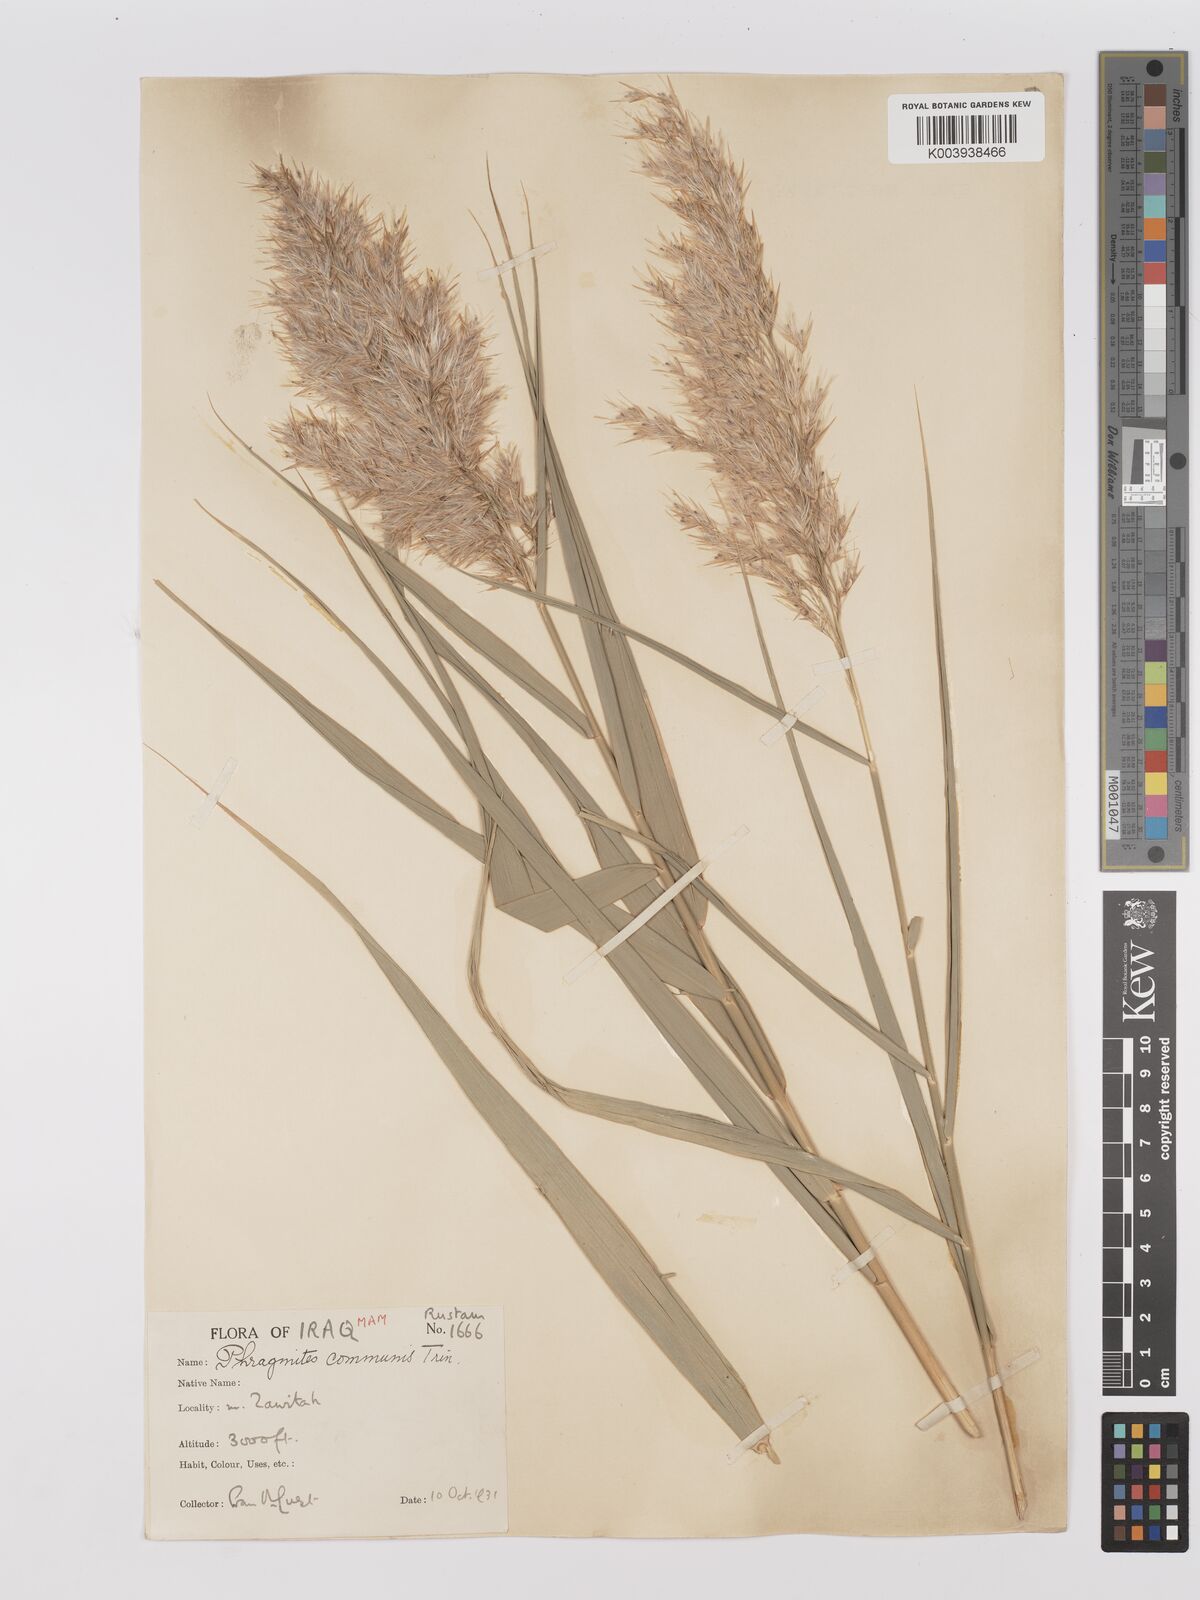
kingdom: Plantae
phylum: Tracheophyta
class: Liliopsida
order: Poales
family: Poaceae
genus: Phragmites
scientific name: Phragmites australis
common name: Common reed
